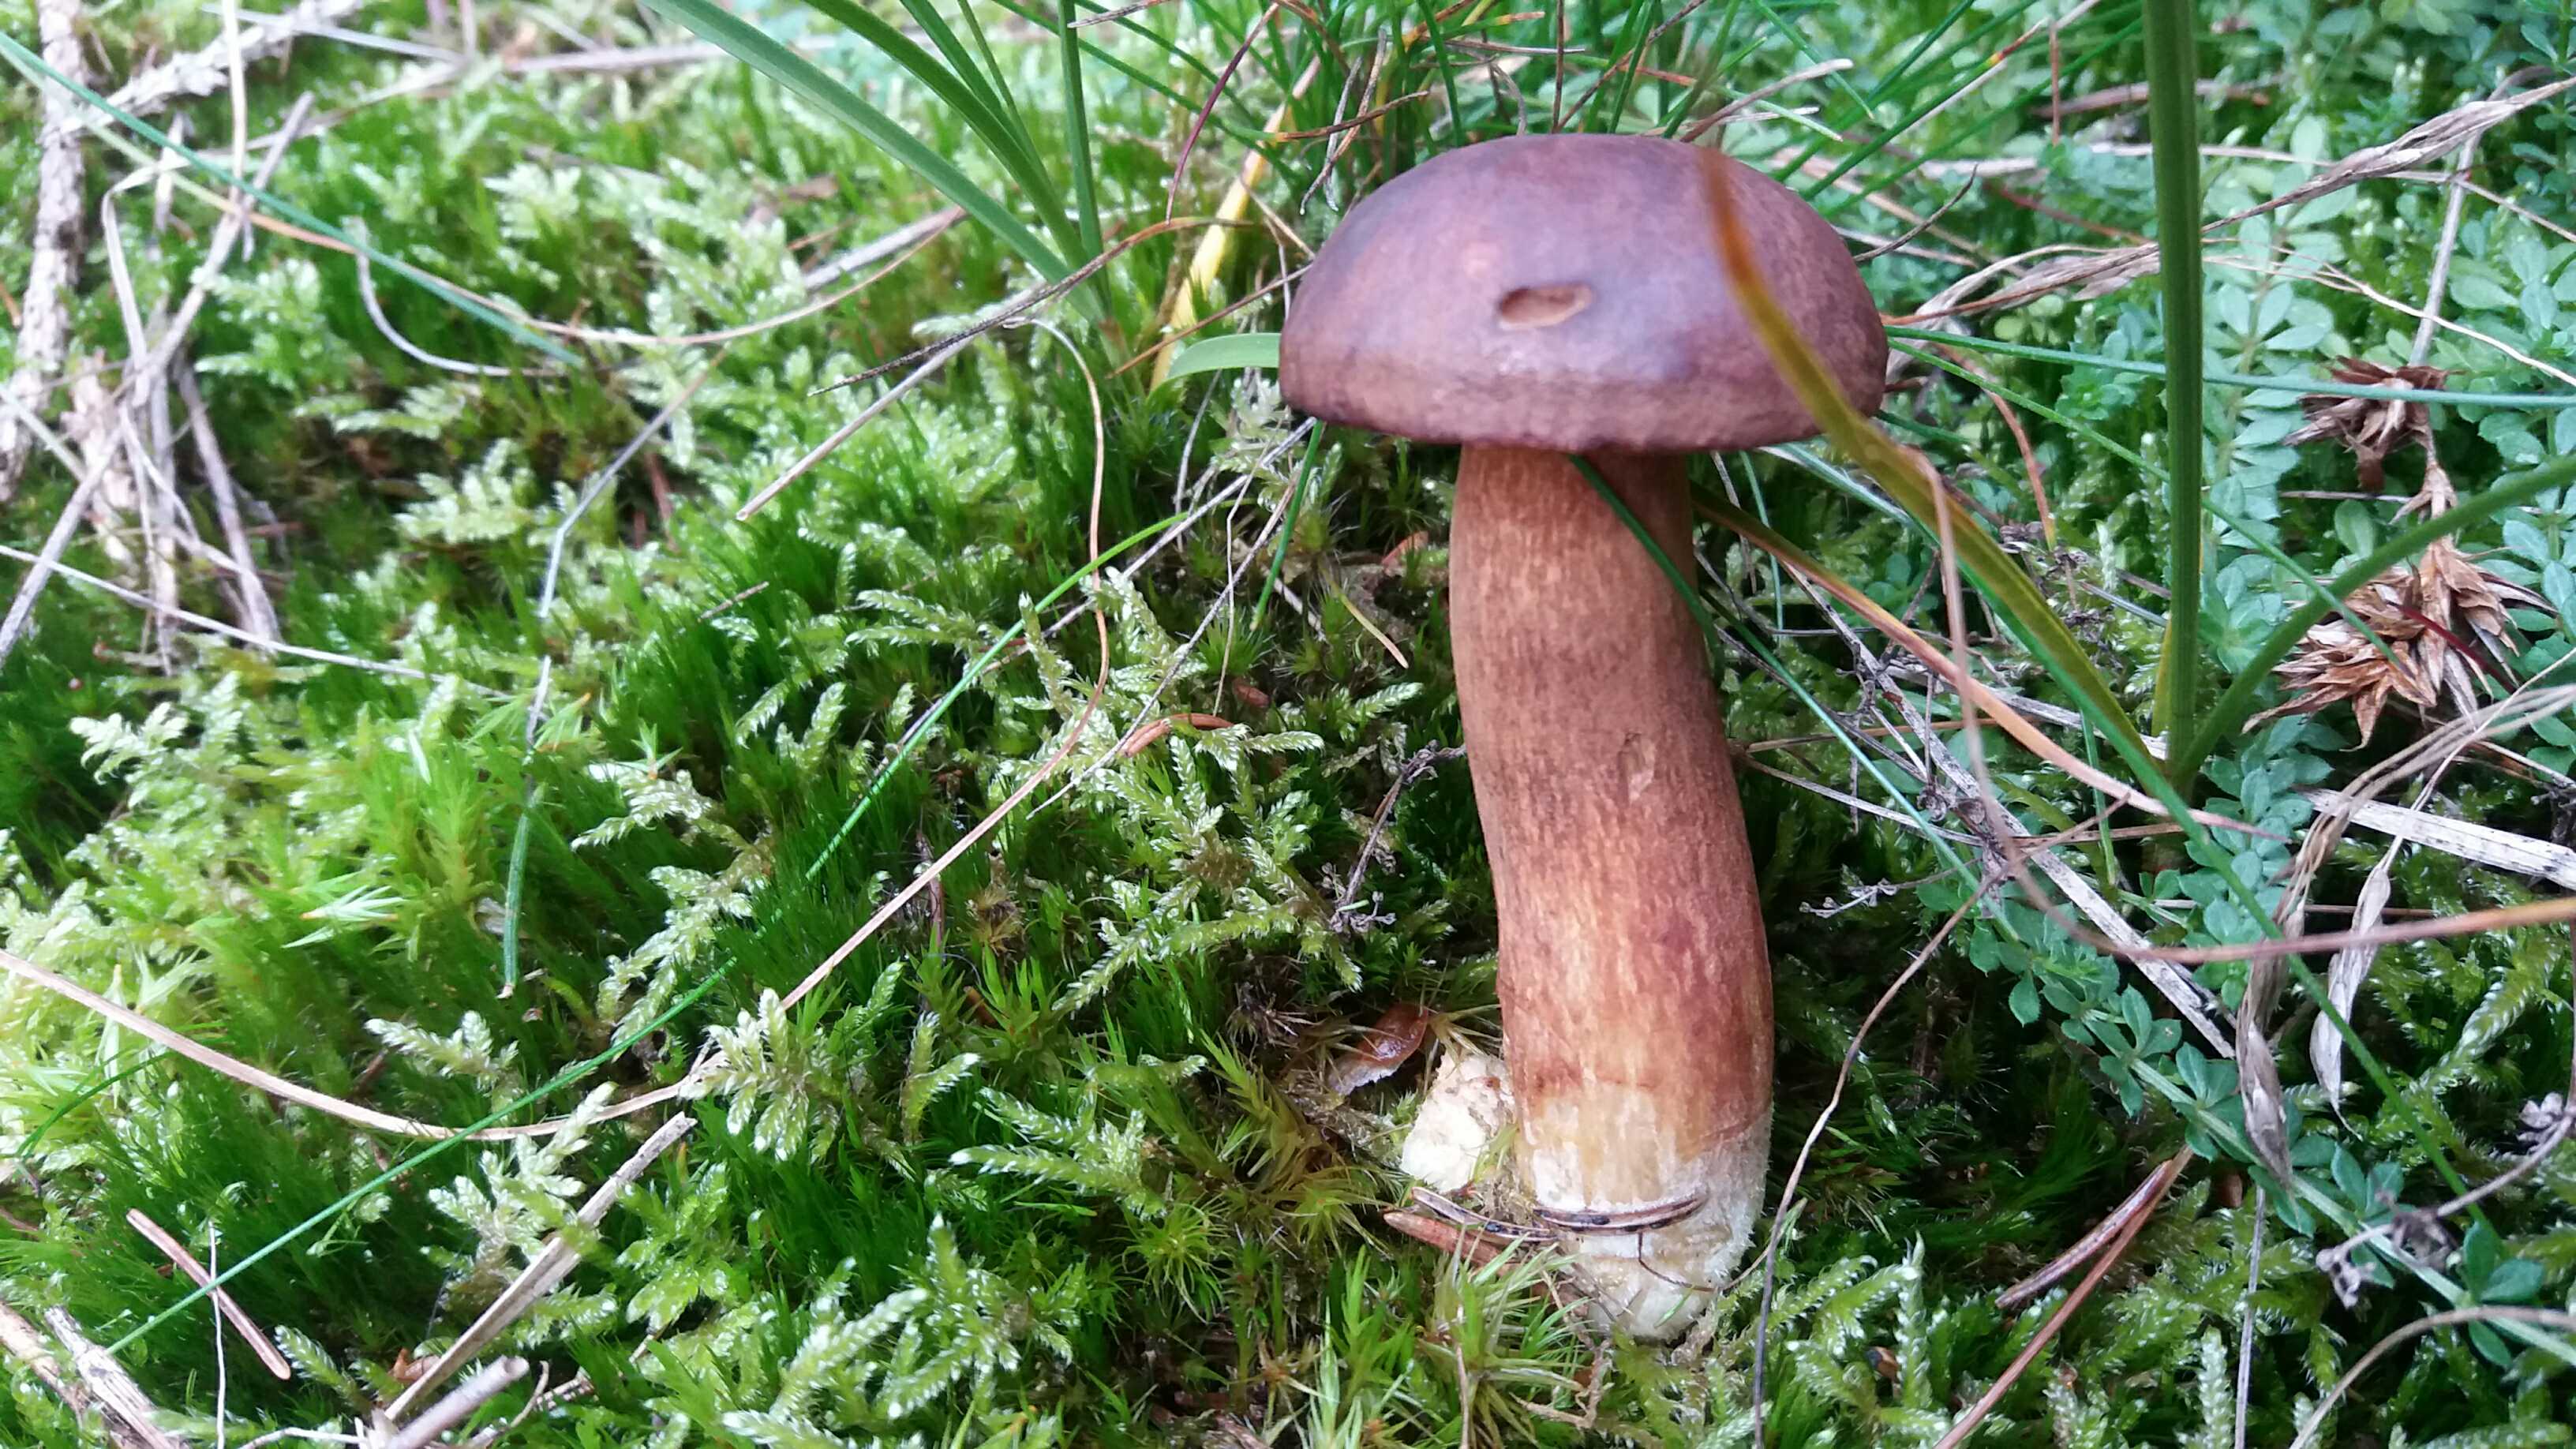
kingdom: Fungi
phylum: Basidiomycota
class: Agaricomycetes
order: Boletales
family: Boletaceae
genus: Imleria
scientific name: Imleria badia
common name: brunstokket rørhat
